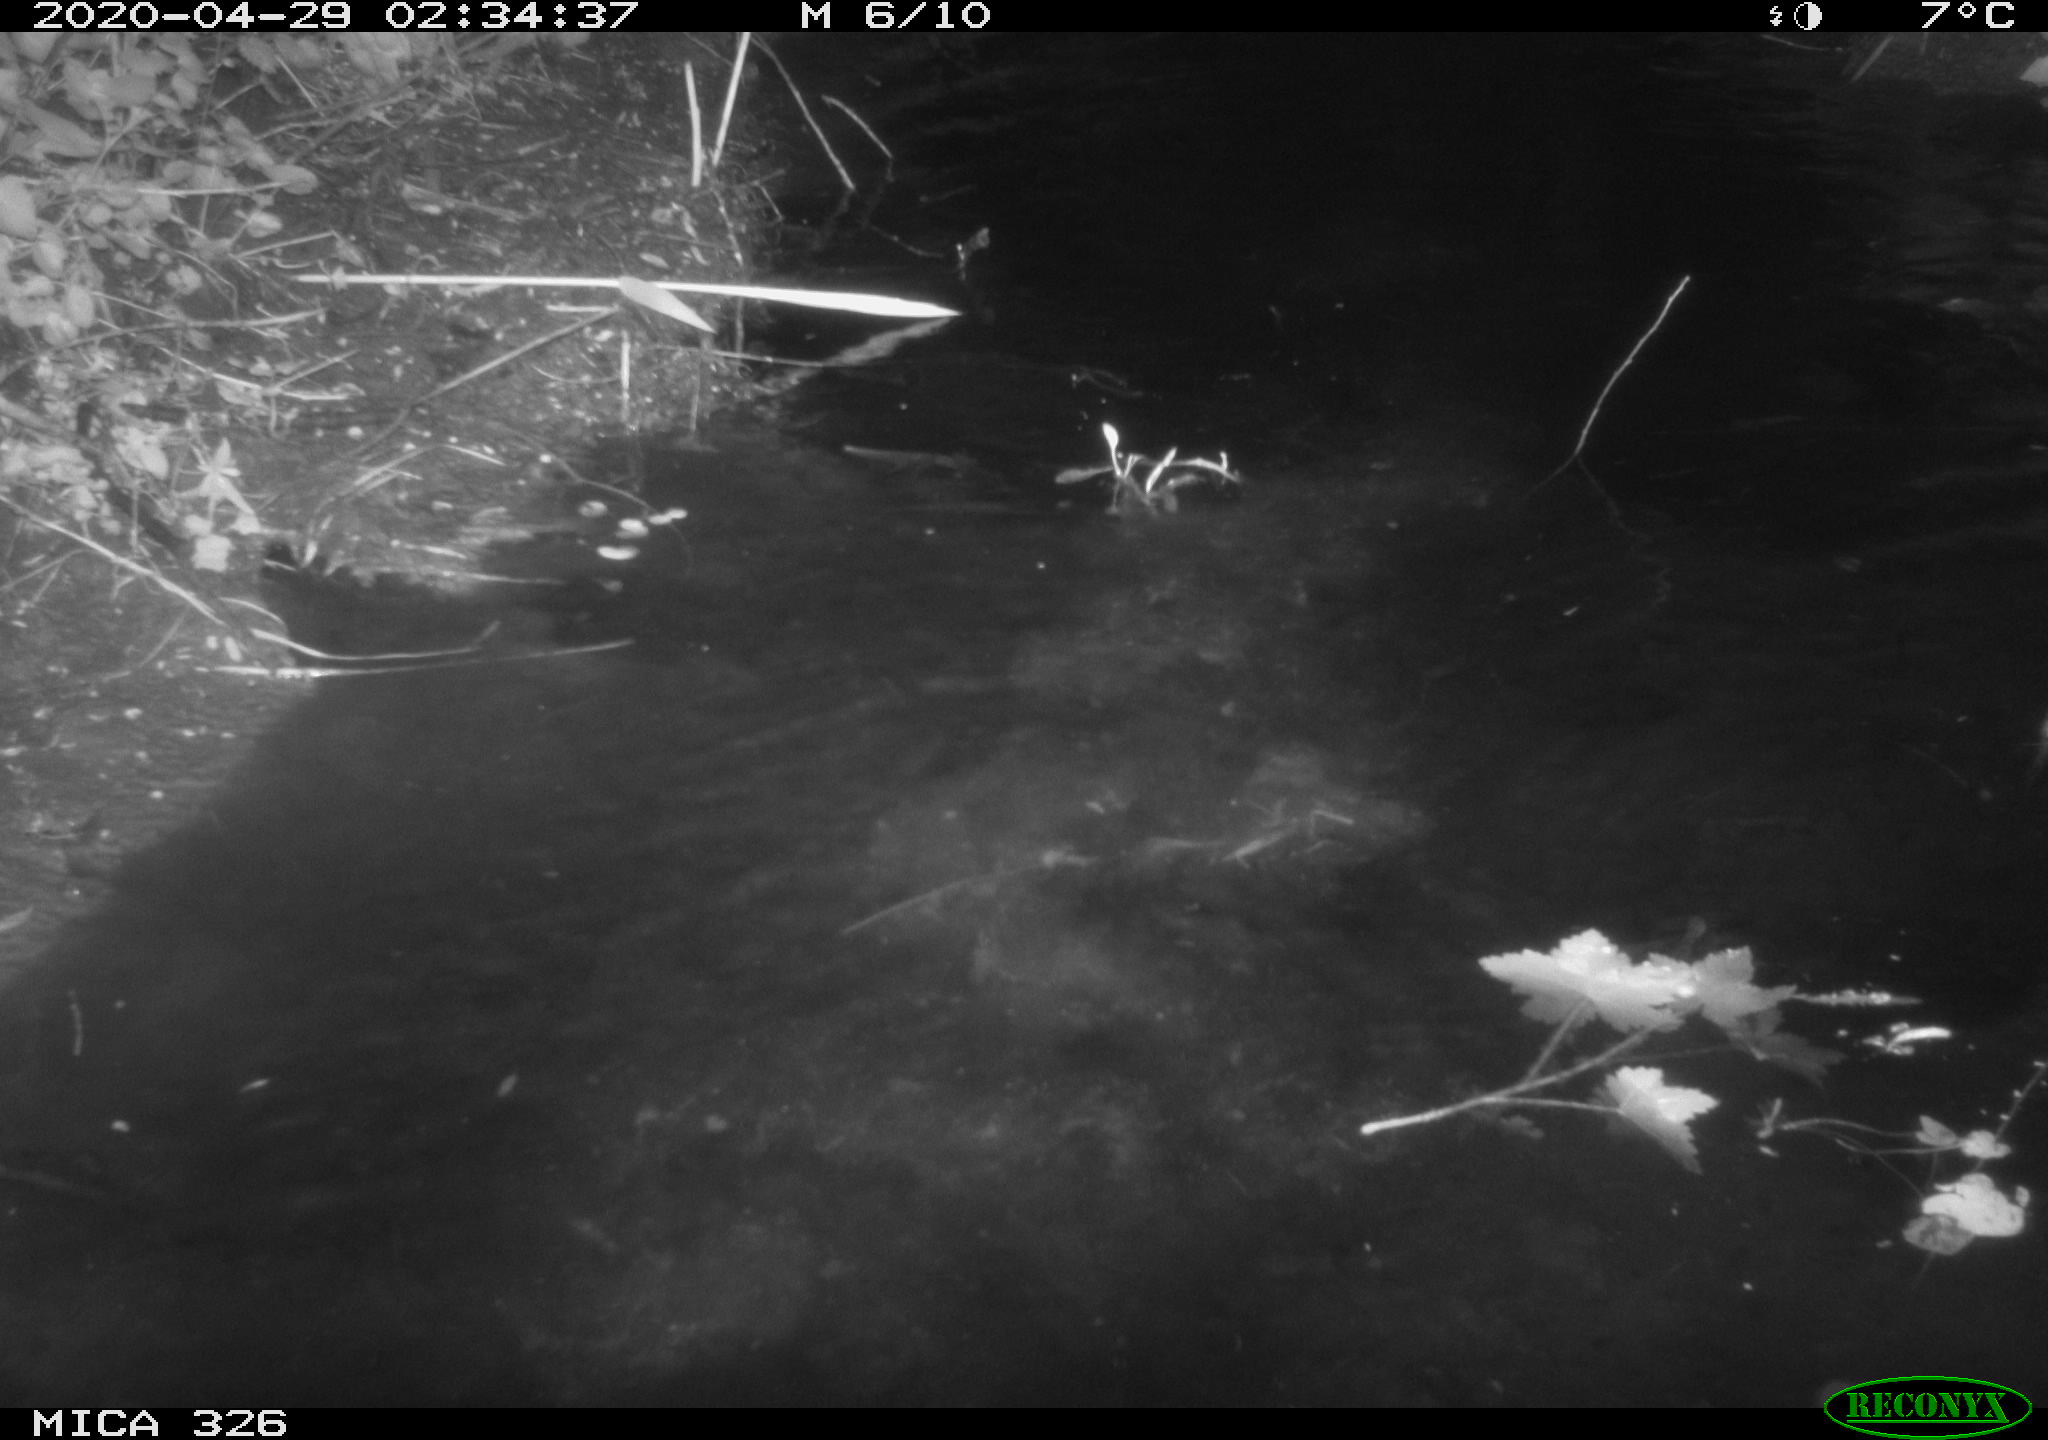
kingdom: Animalia
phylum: Chordata
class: Mammalia
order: Rodentia
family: Cricetidae
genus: Ondatra
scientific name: Ondatra zibethicus
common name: Muskrat
